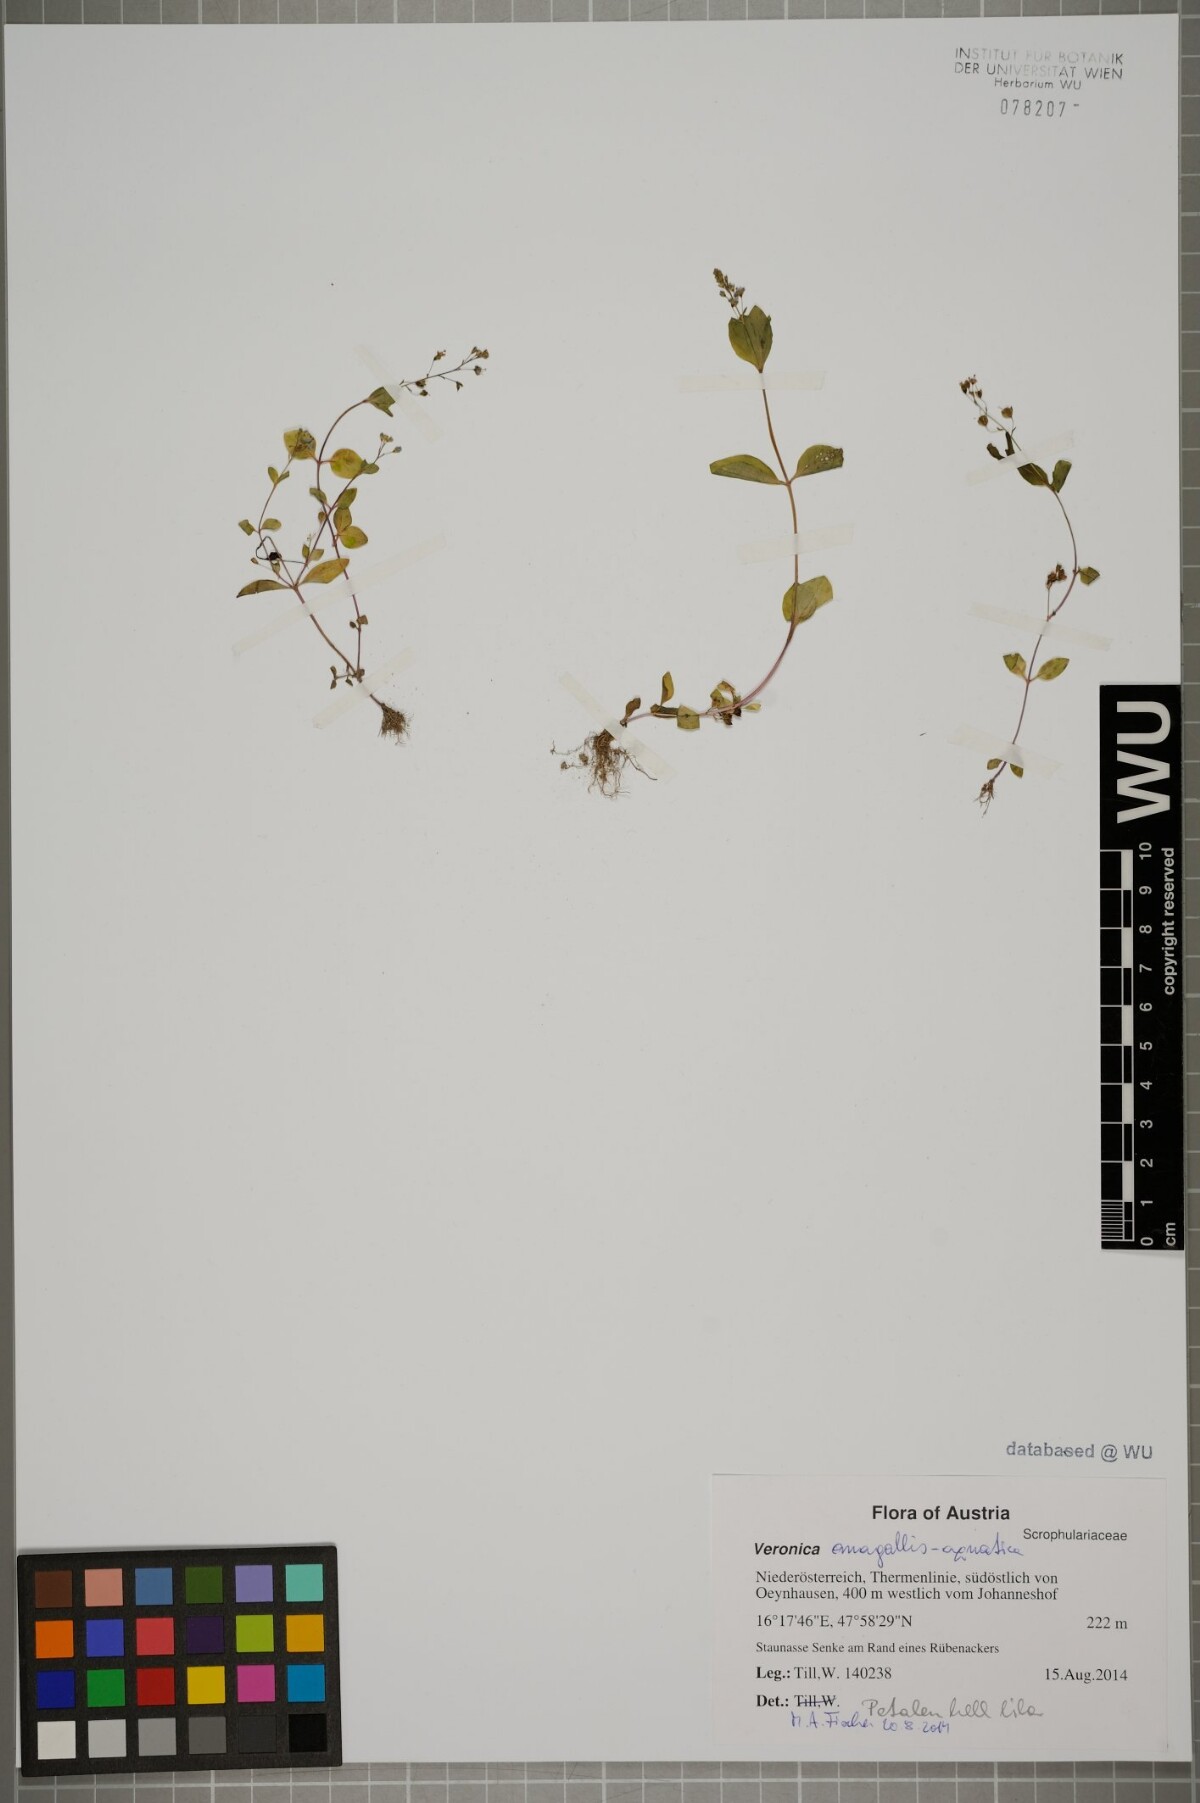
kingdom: Plantae
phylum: Tracheophyta
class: Magnoliopsida
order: Lamiales
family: Plantaginaceae
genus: Veronica
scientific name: Veronica anagallis-aquatica
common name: Water speedwell
